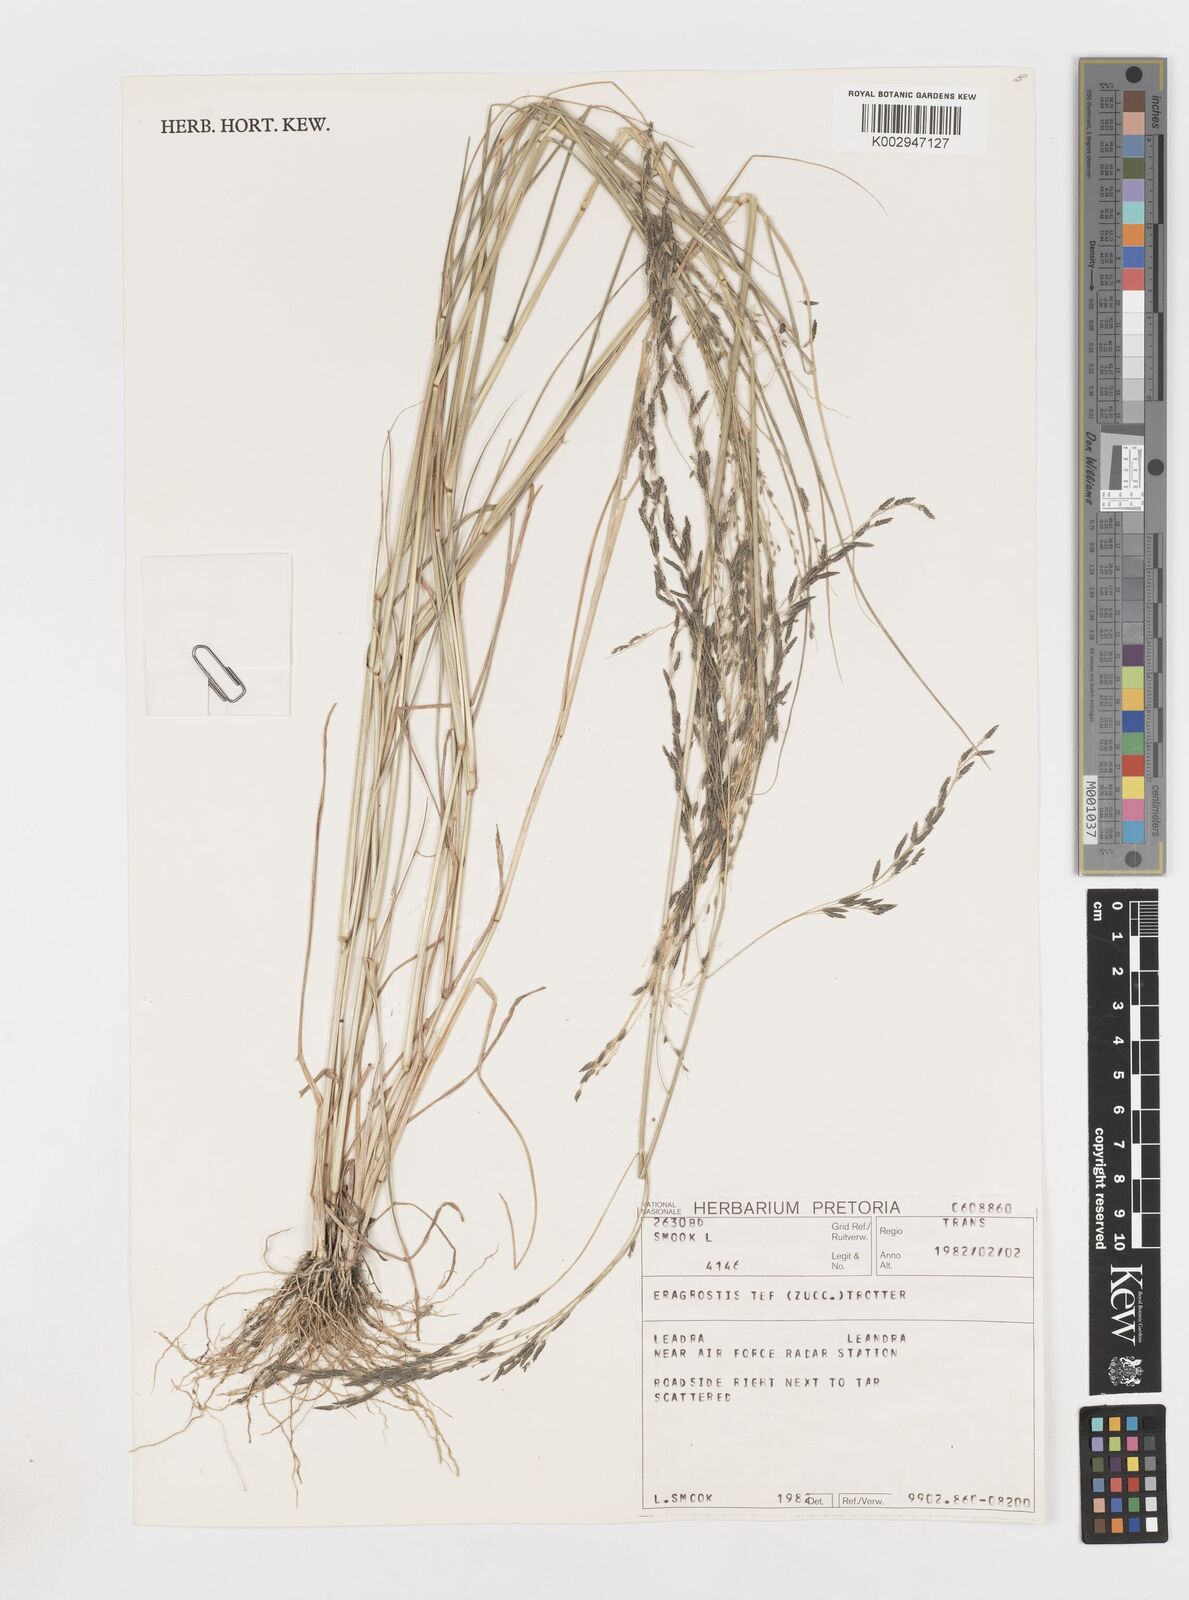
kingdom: Plantae
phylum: Tracheophyta
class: Liliopsida
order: Poales
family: Poaceae
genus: Eragrostis
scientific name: Eragrostis tef
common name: Teff
